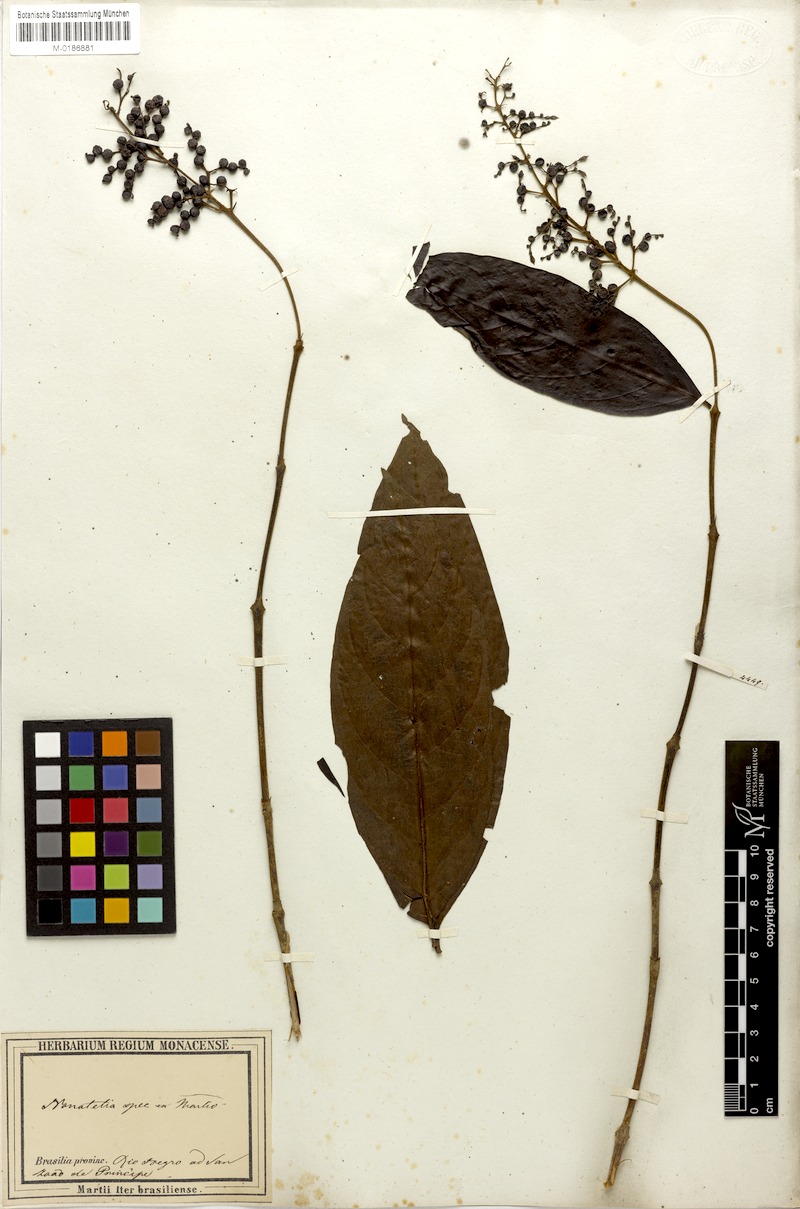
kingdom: Plantae
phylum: Tracheophyta
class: Magnoliopsida
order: Gentianales
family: Rubiaceae
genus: Bertiera
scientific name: Bertiera guianensis
